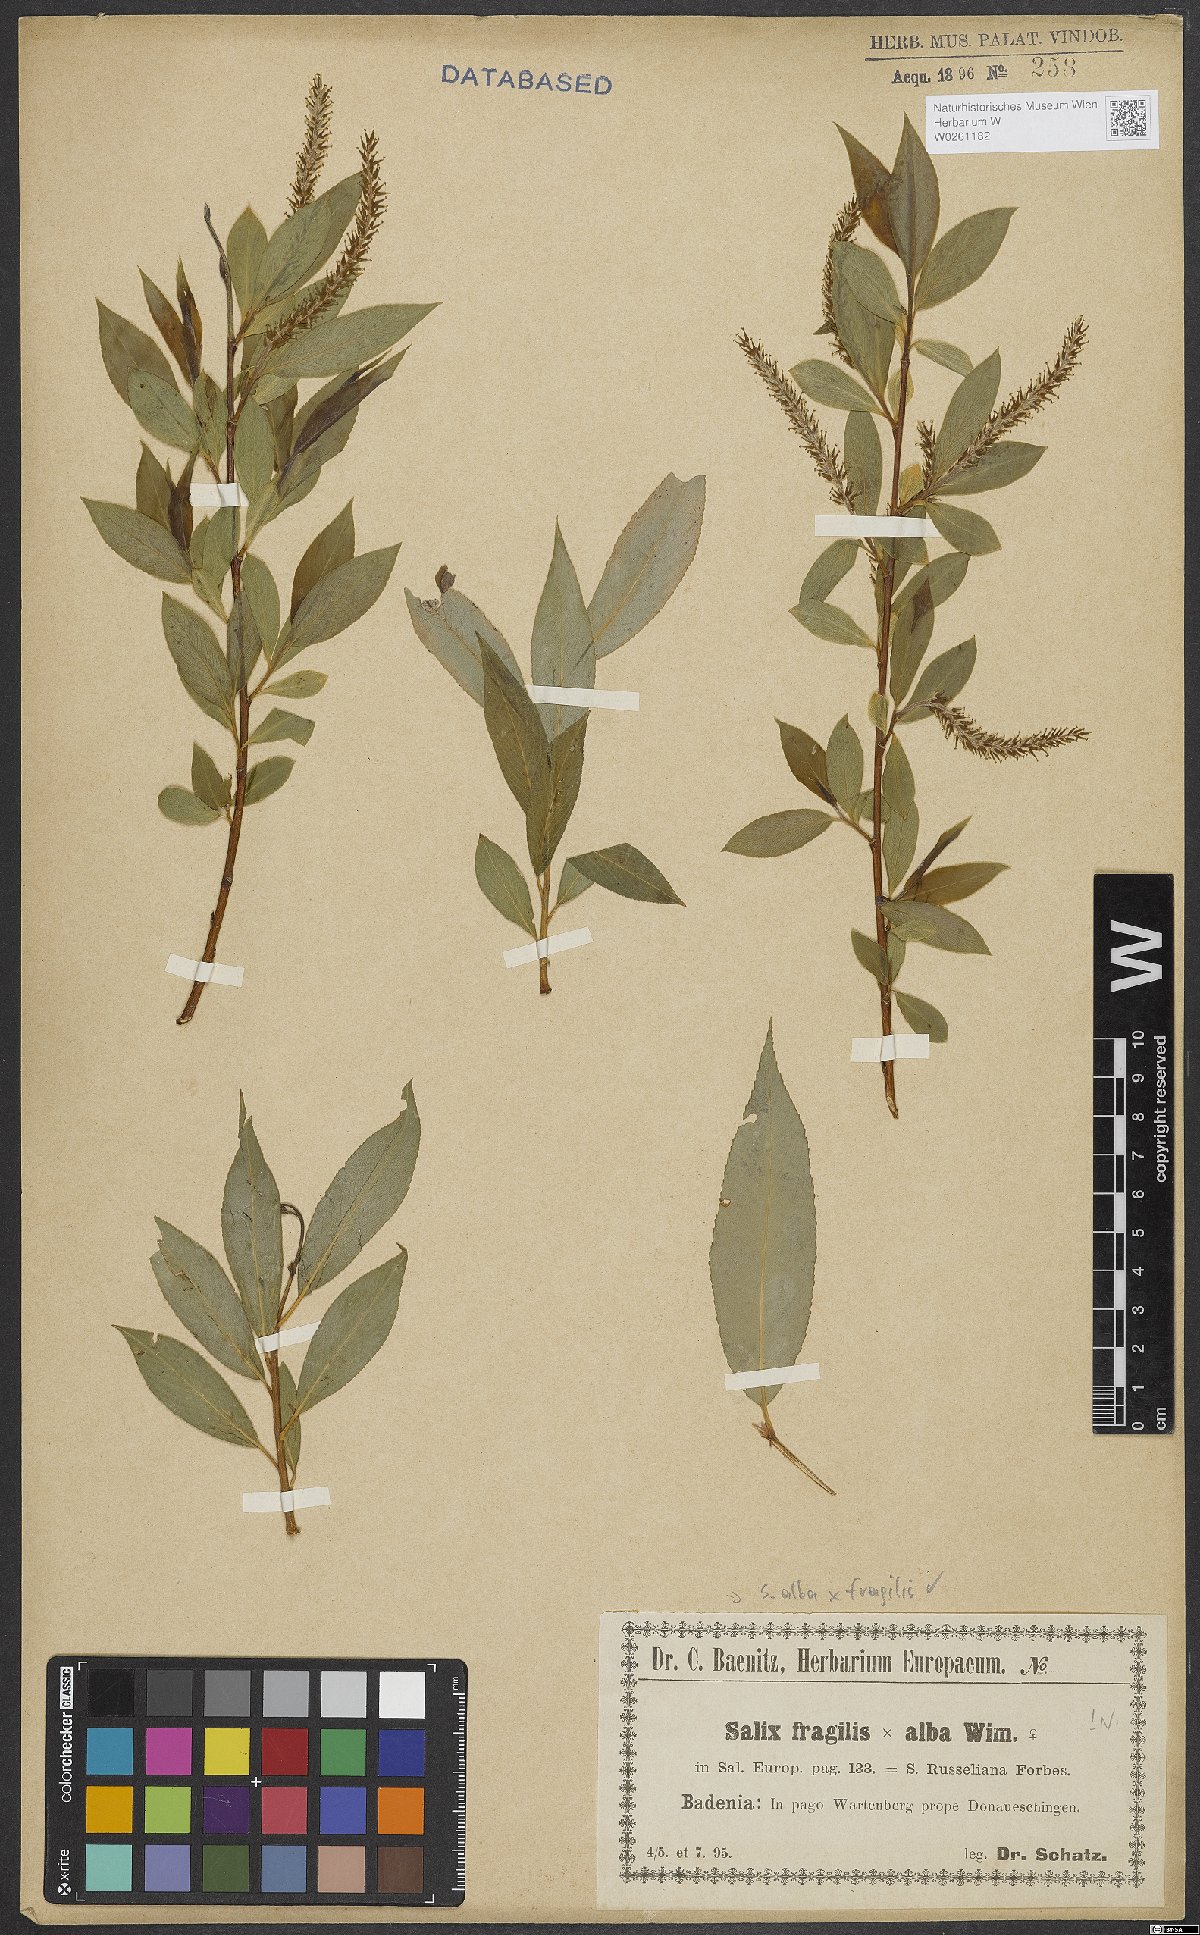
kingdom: Plantae
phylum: Tracheophyta
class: Magnoliopsida
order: Malpighiales
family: Salicaceae
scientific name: Salicaceae
